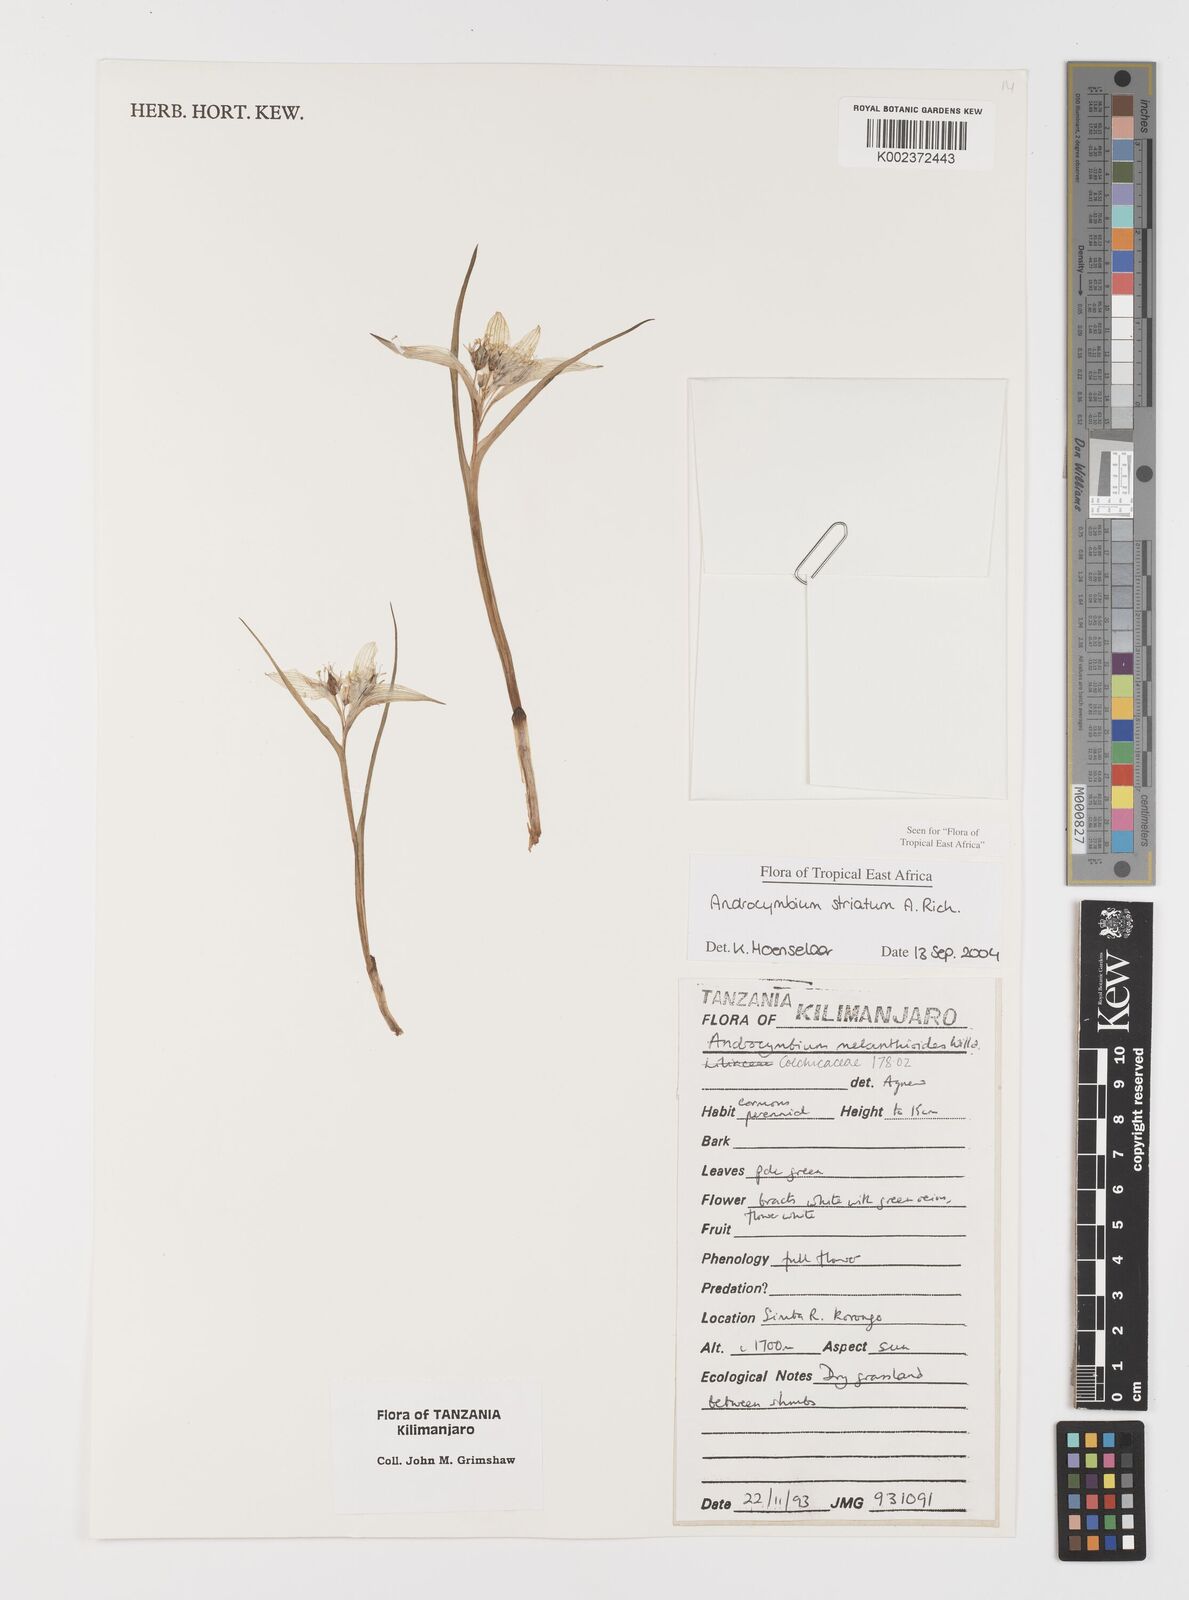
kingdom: Plantae
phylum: Tracheophyta
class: Liliopsida
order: Liliales
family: Colchicaceae
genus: Colchicum
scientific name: Colchicum striatum
